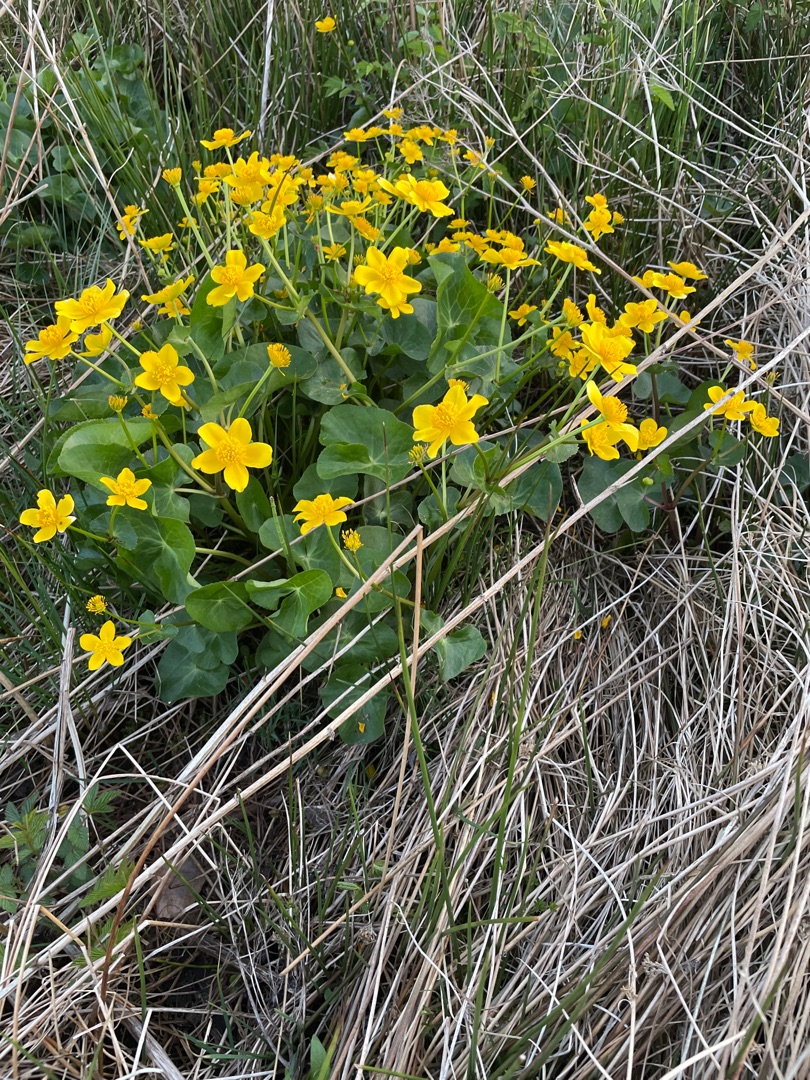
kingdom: Plantae
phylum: Tracheophyta
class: Magnoliopsida
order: Ranunculales
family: Ranunculaceae
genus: Caltha
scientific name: Caltha palustris
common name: Eng-kabbeleje
